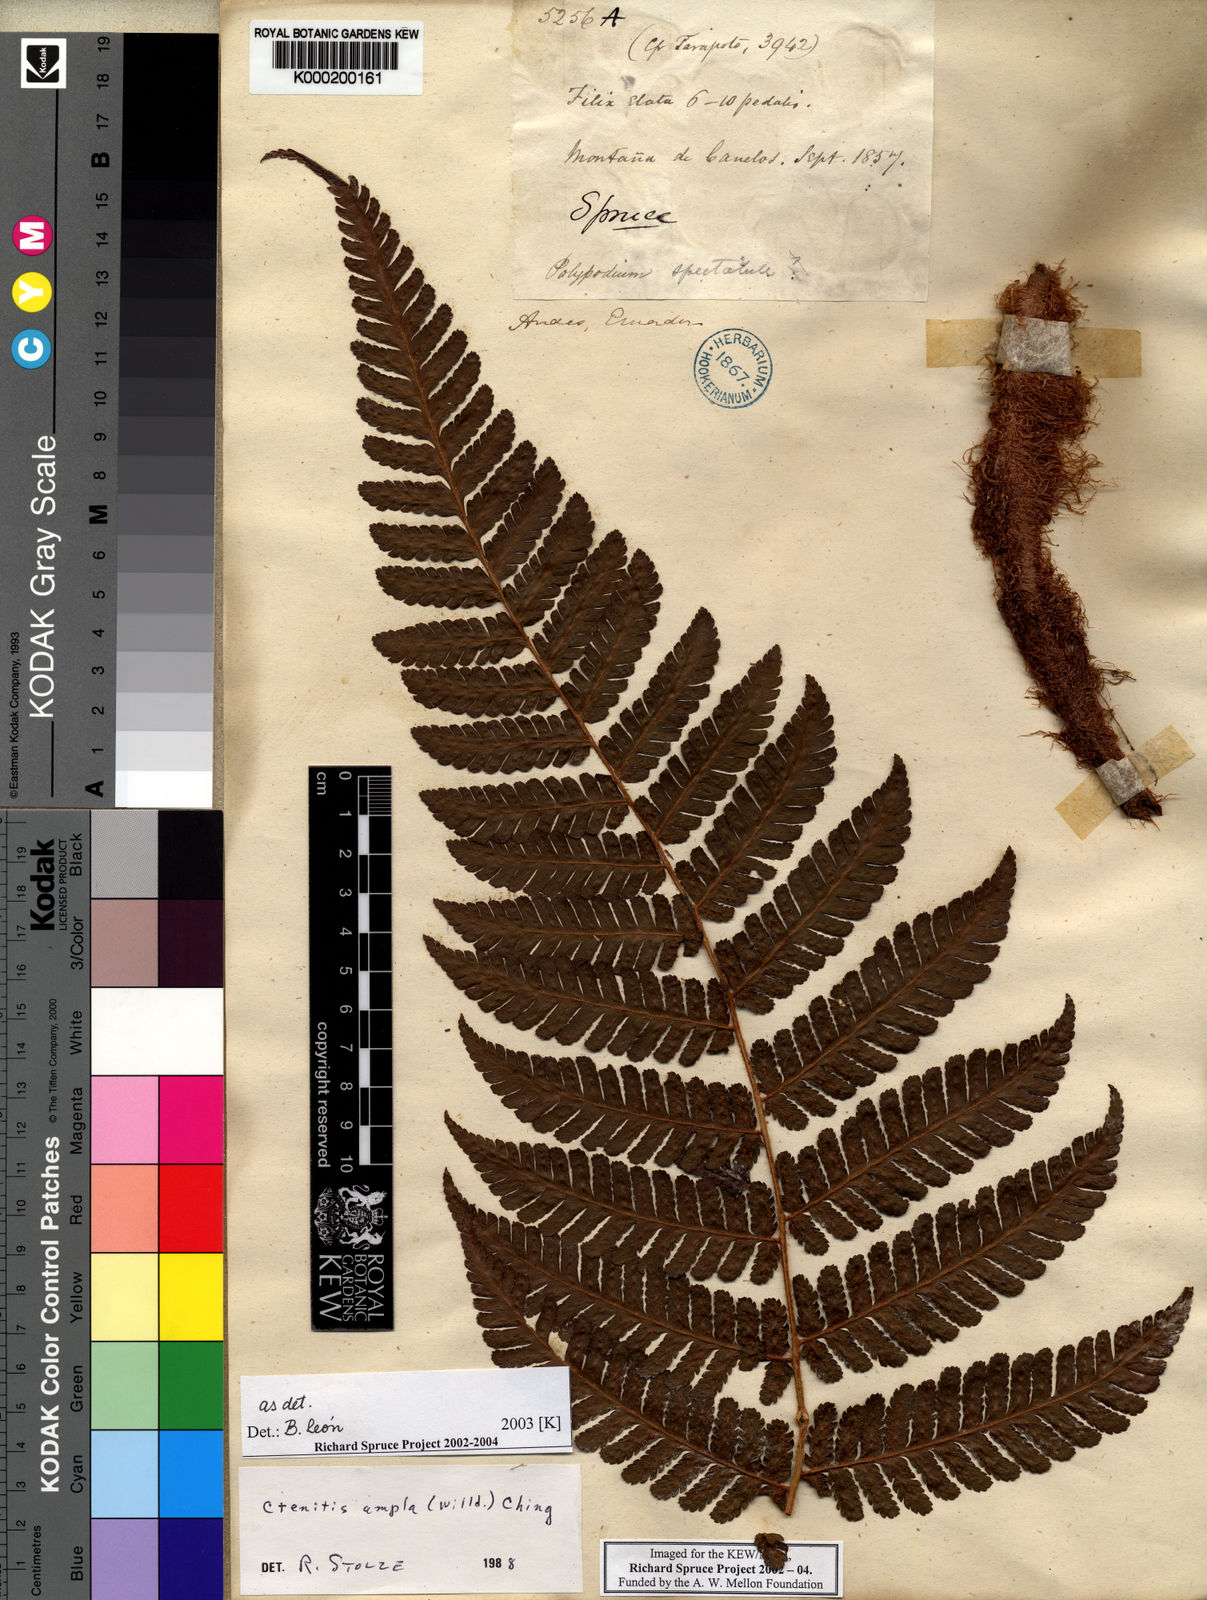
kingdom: Plantae
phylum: Tracheophyta
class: Polypodiopsida
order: Polypodiales
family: Dryopteridaceae
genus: Ctenitis
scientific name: Ctenitis sloanei
